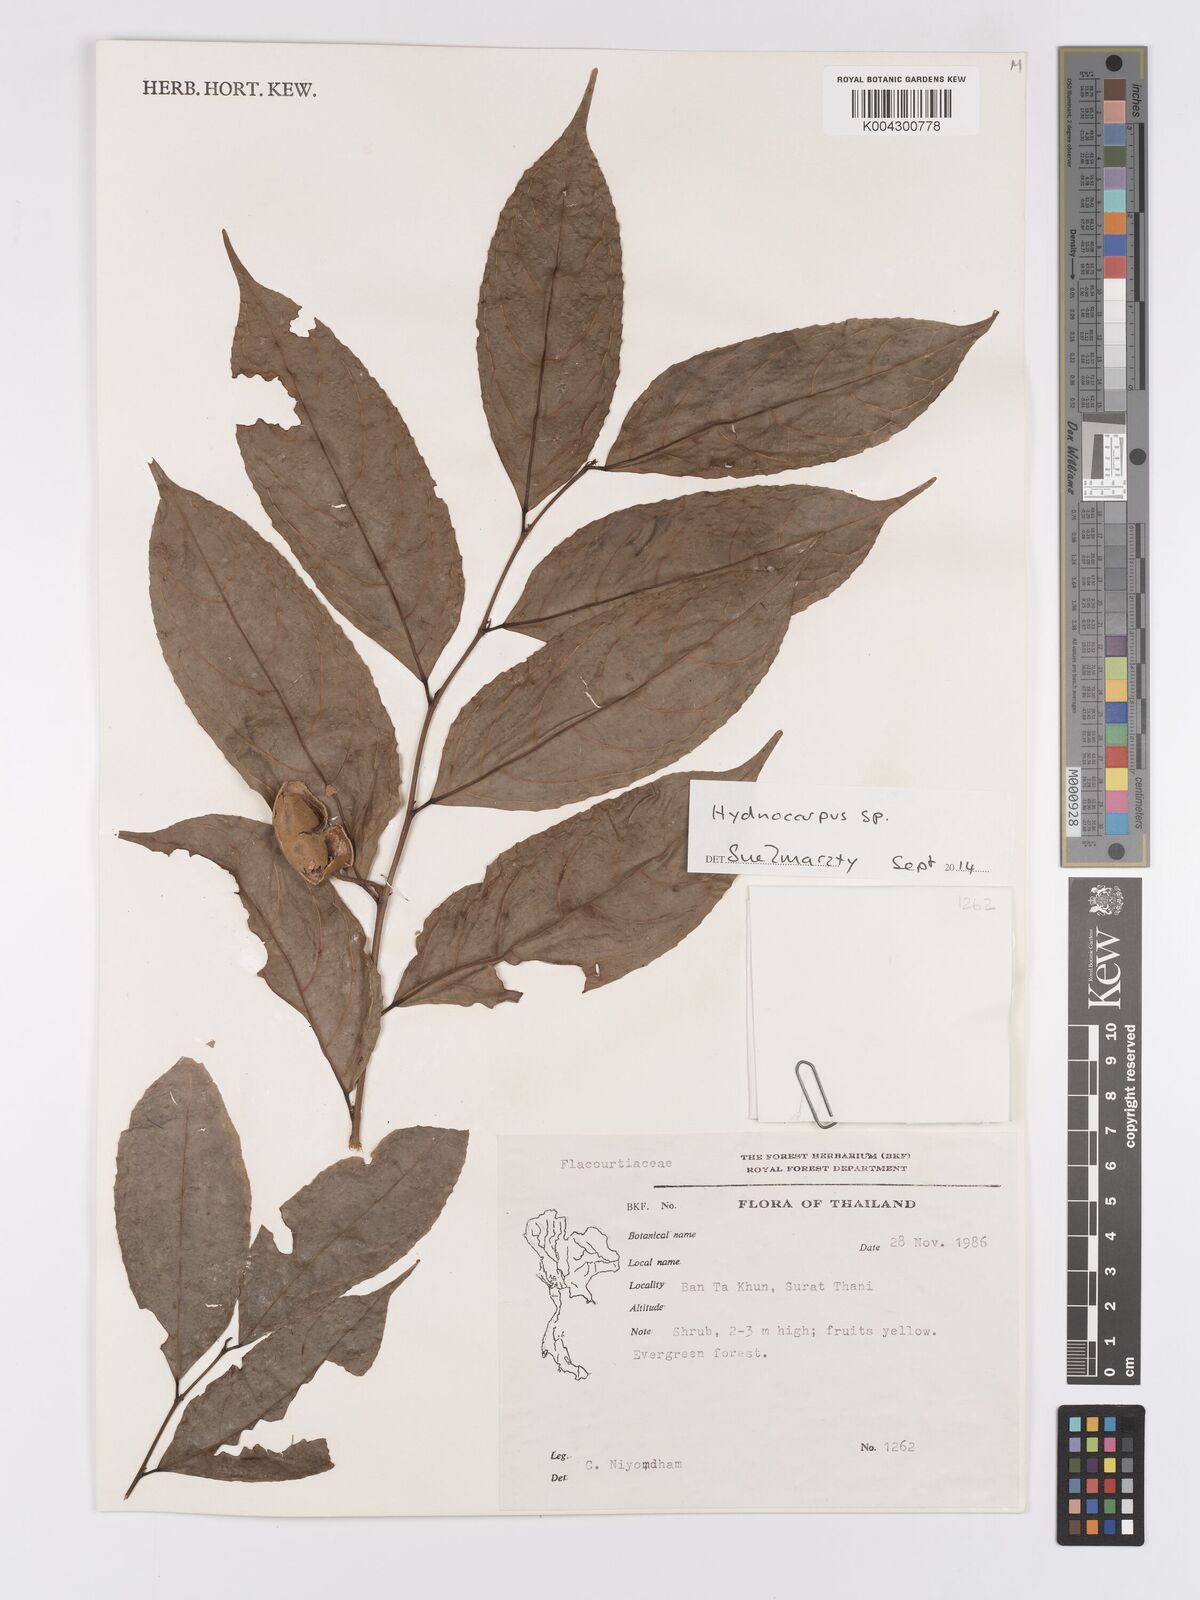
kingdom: Plantae
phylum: Tracheophyta
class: Magnoliopsida
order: Malpighiales
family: Achariaceae
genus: Hydnocarpus
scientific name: Hydnocarpus
